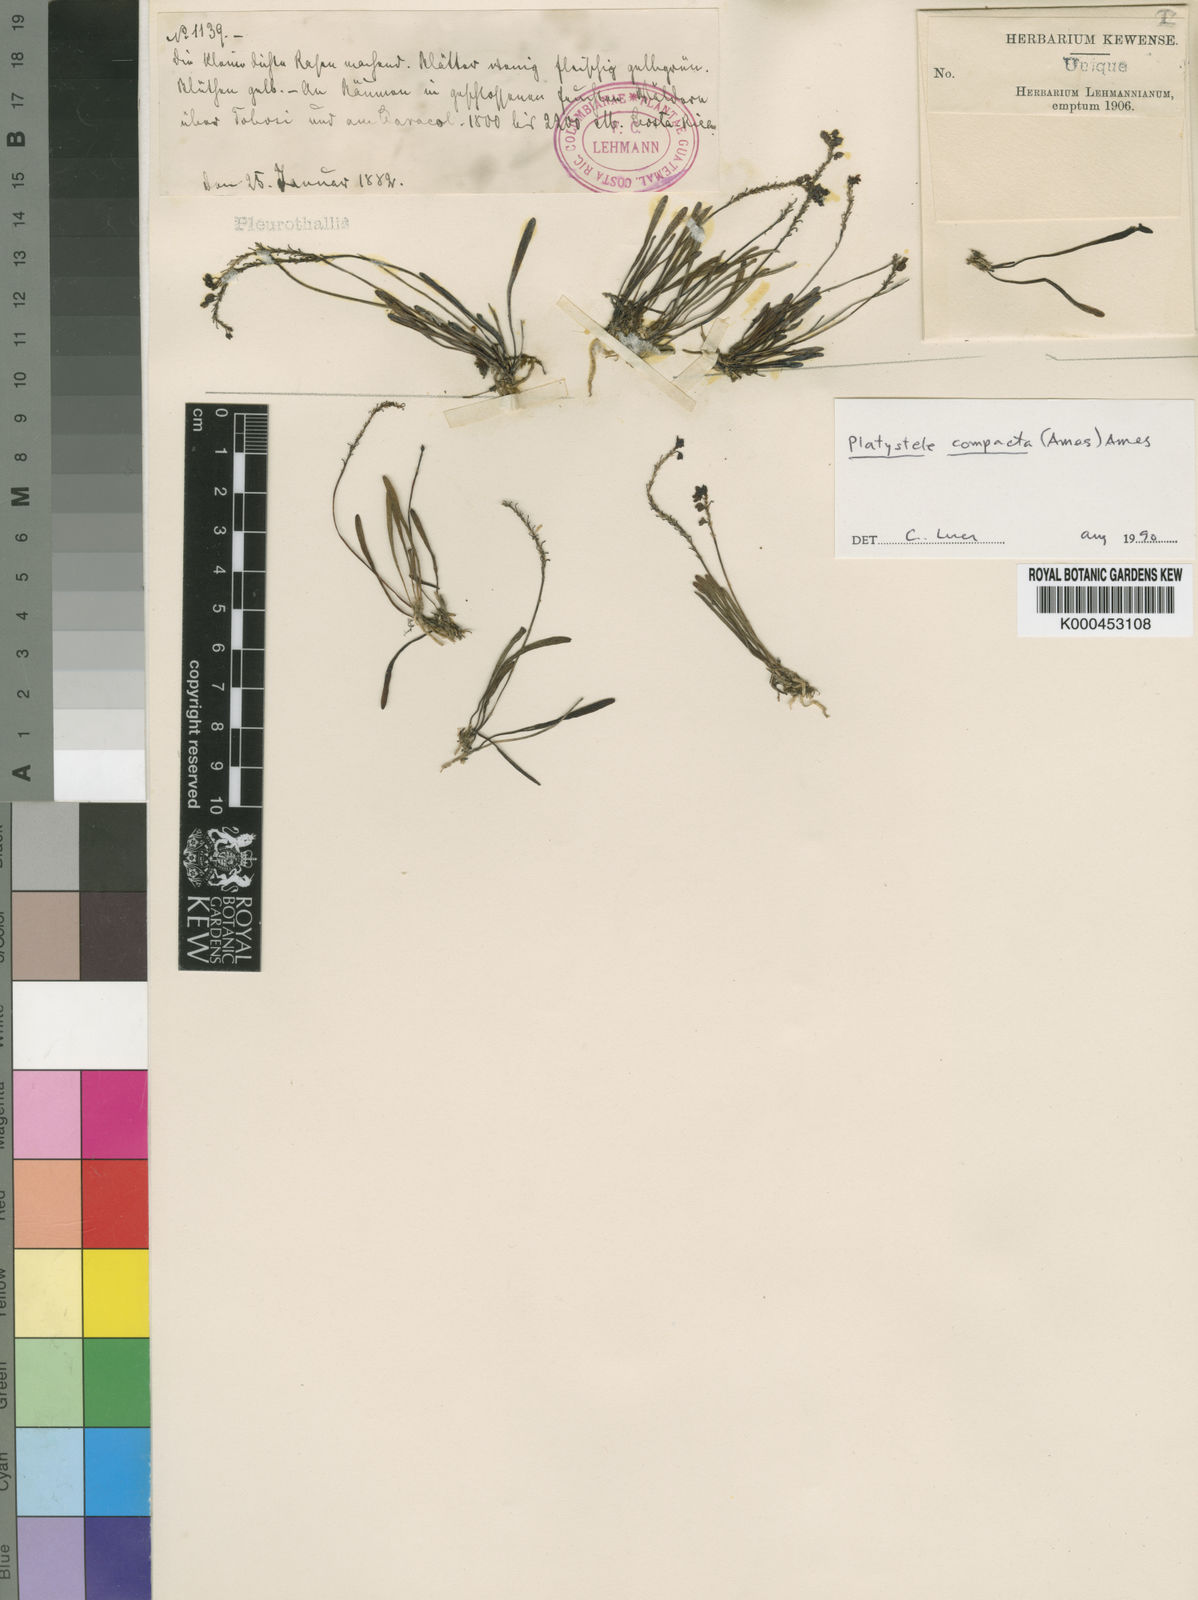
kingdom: Plantae
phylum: Tracheophyta
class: Liliopsida
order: Asparagales
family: Orchidaceae
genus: Platystele
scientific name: Platystele compacta
